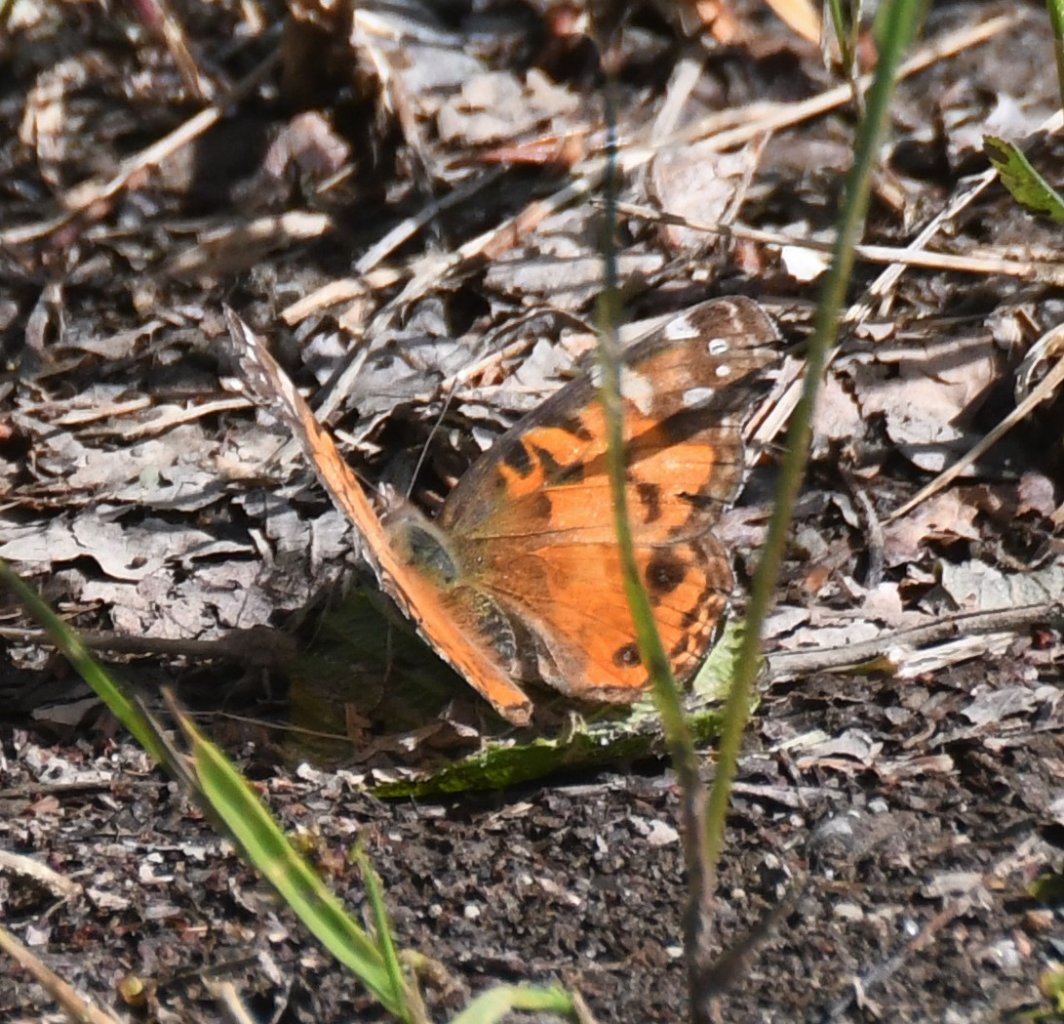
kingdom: Animalia
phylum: Arthropoda
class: Insecta
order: Lepidoptera
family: Nymphalidae
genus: Vanessa
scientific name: Vanessa virginiensis
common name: American Lady
